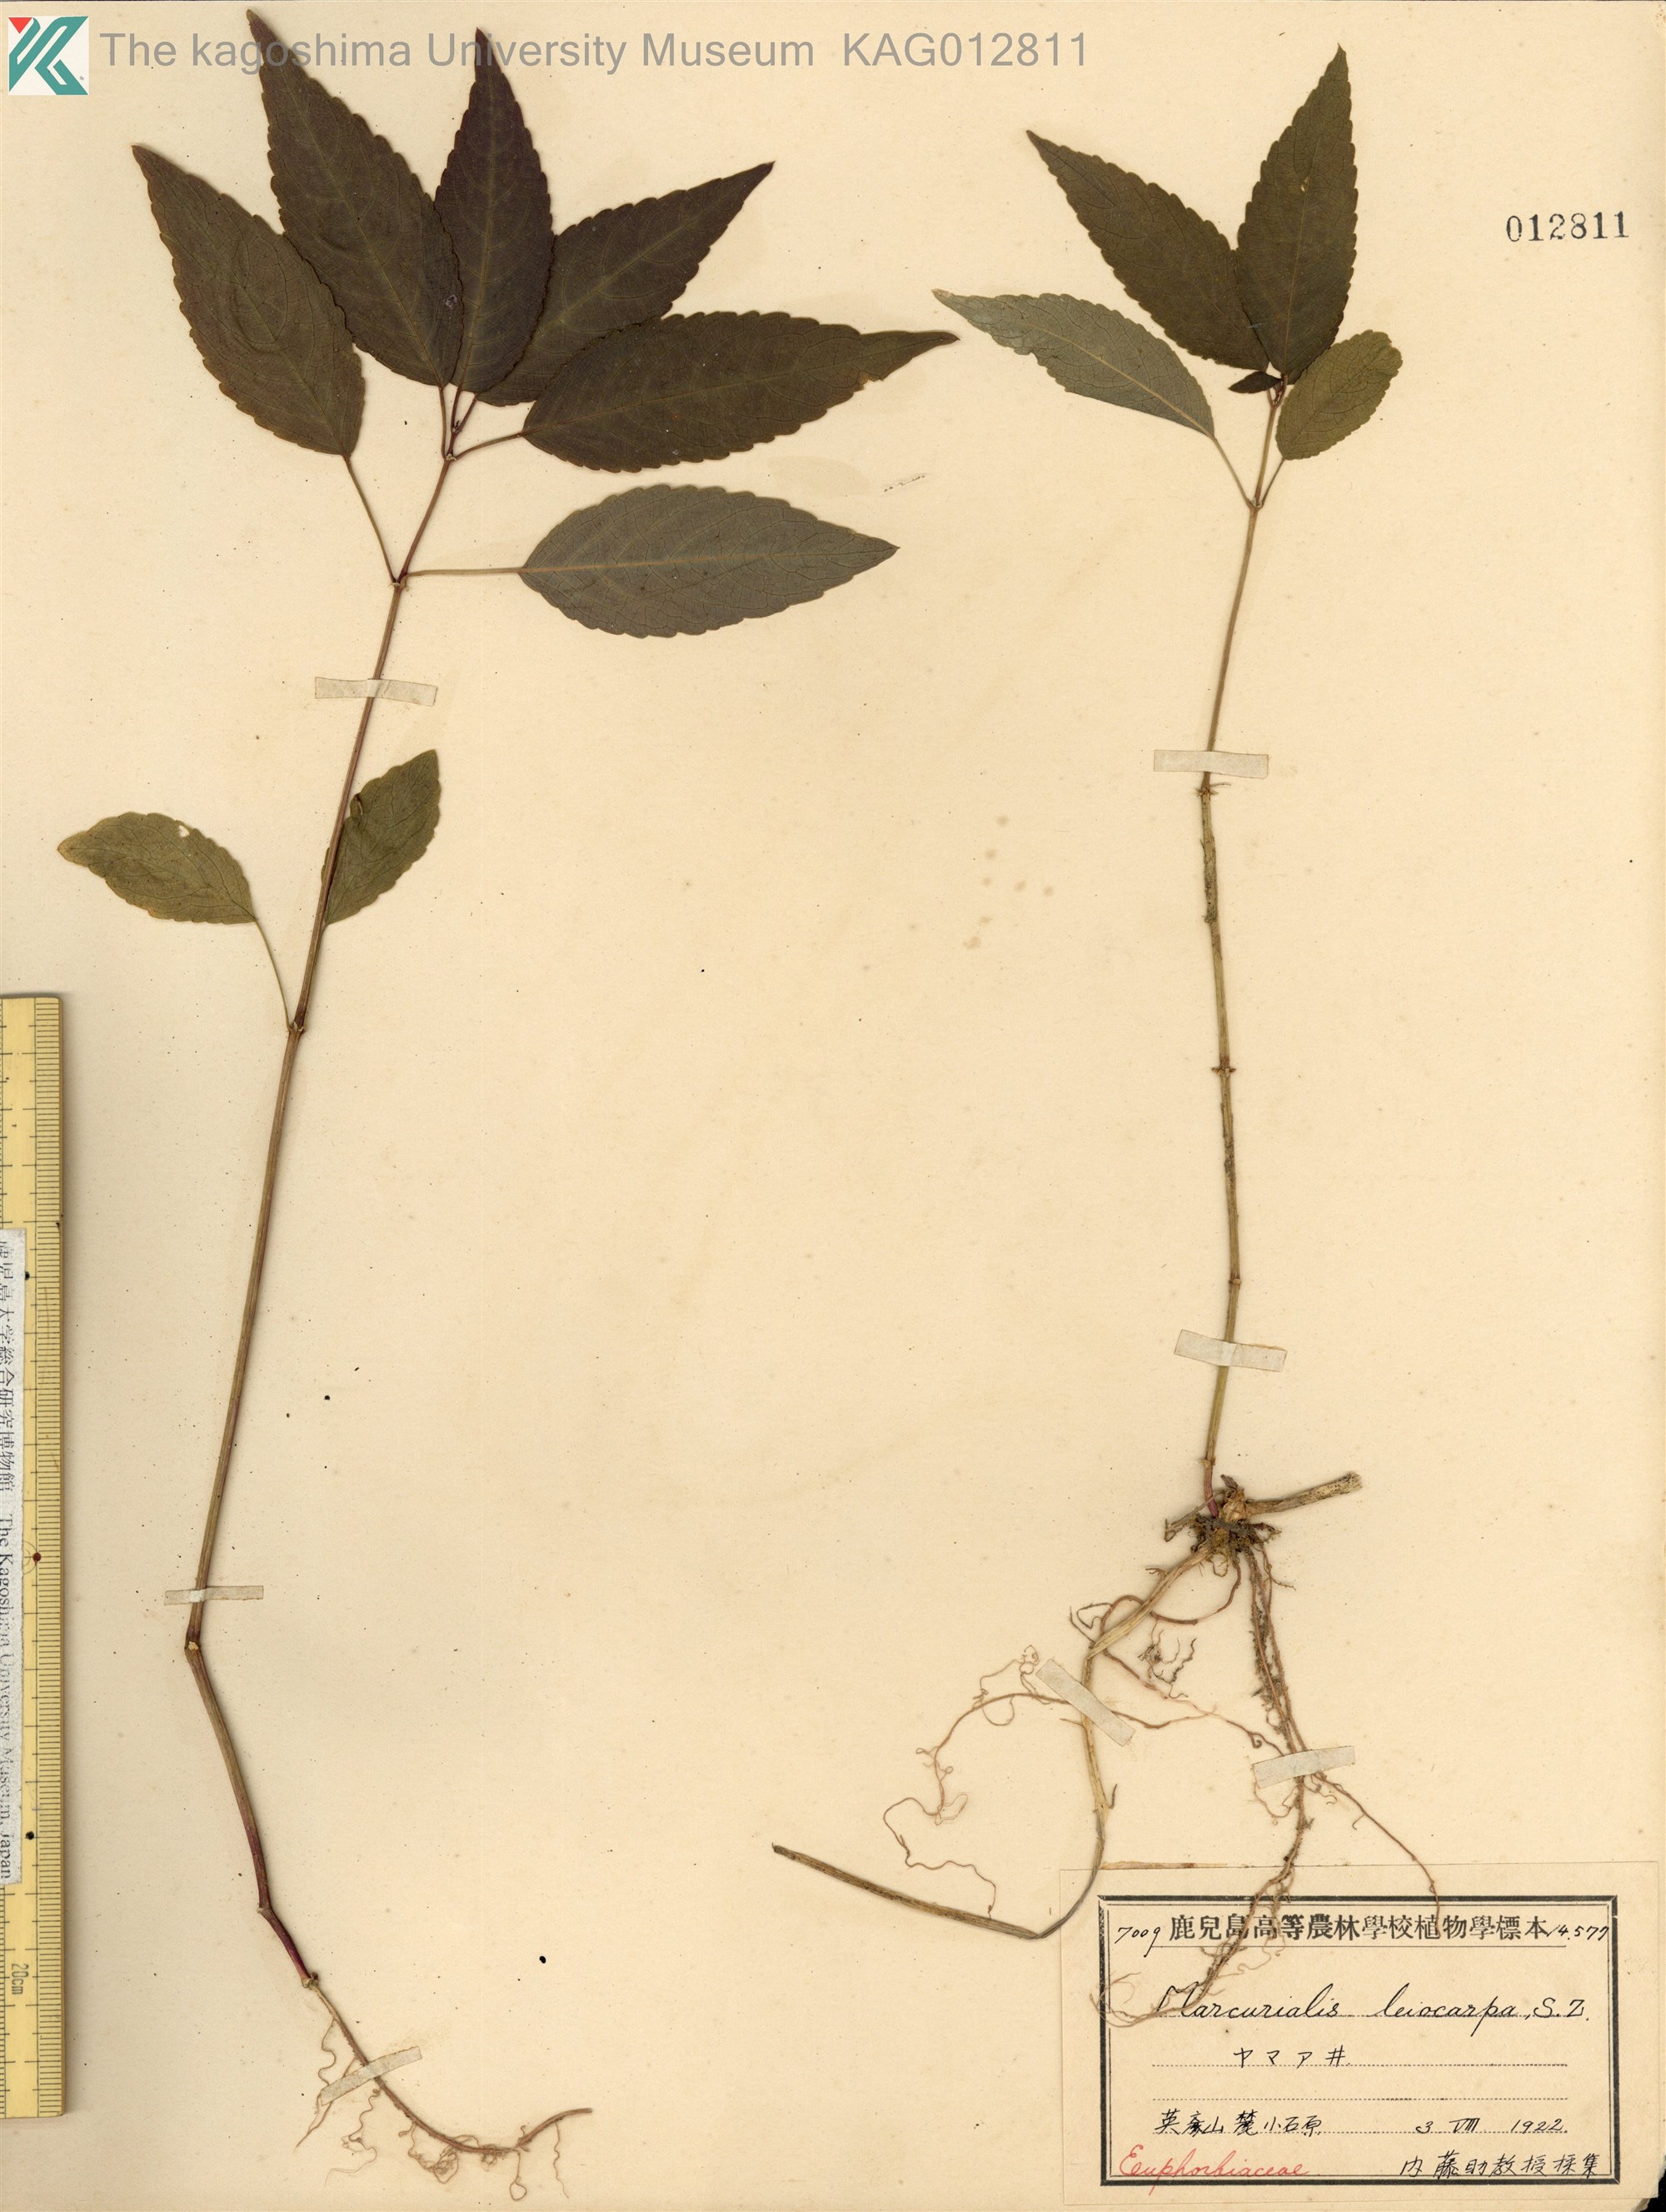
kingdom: Plantae
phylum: Tracheophyta
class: Magnoliopsida
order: Malpighiales
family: Euphorbiaceae
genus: Mercurialis
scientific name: Mercurialis leiocarpa
